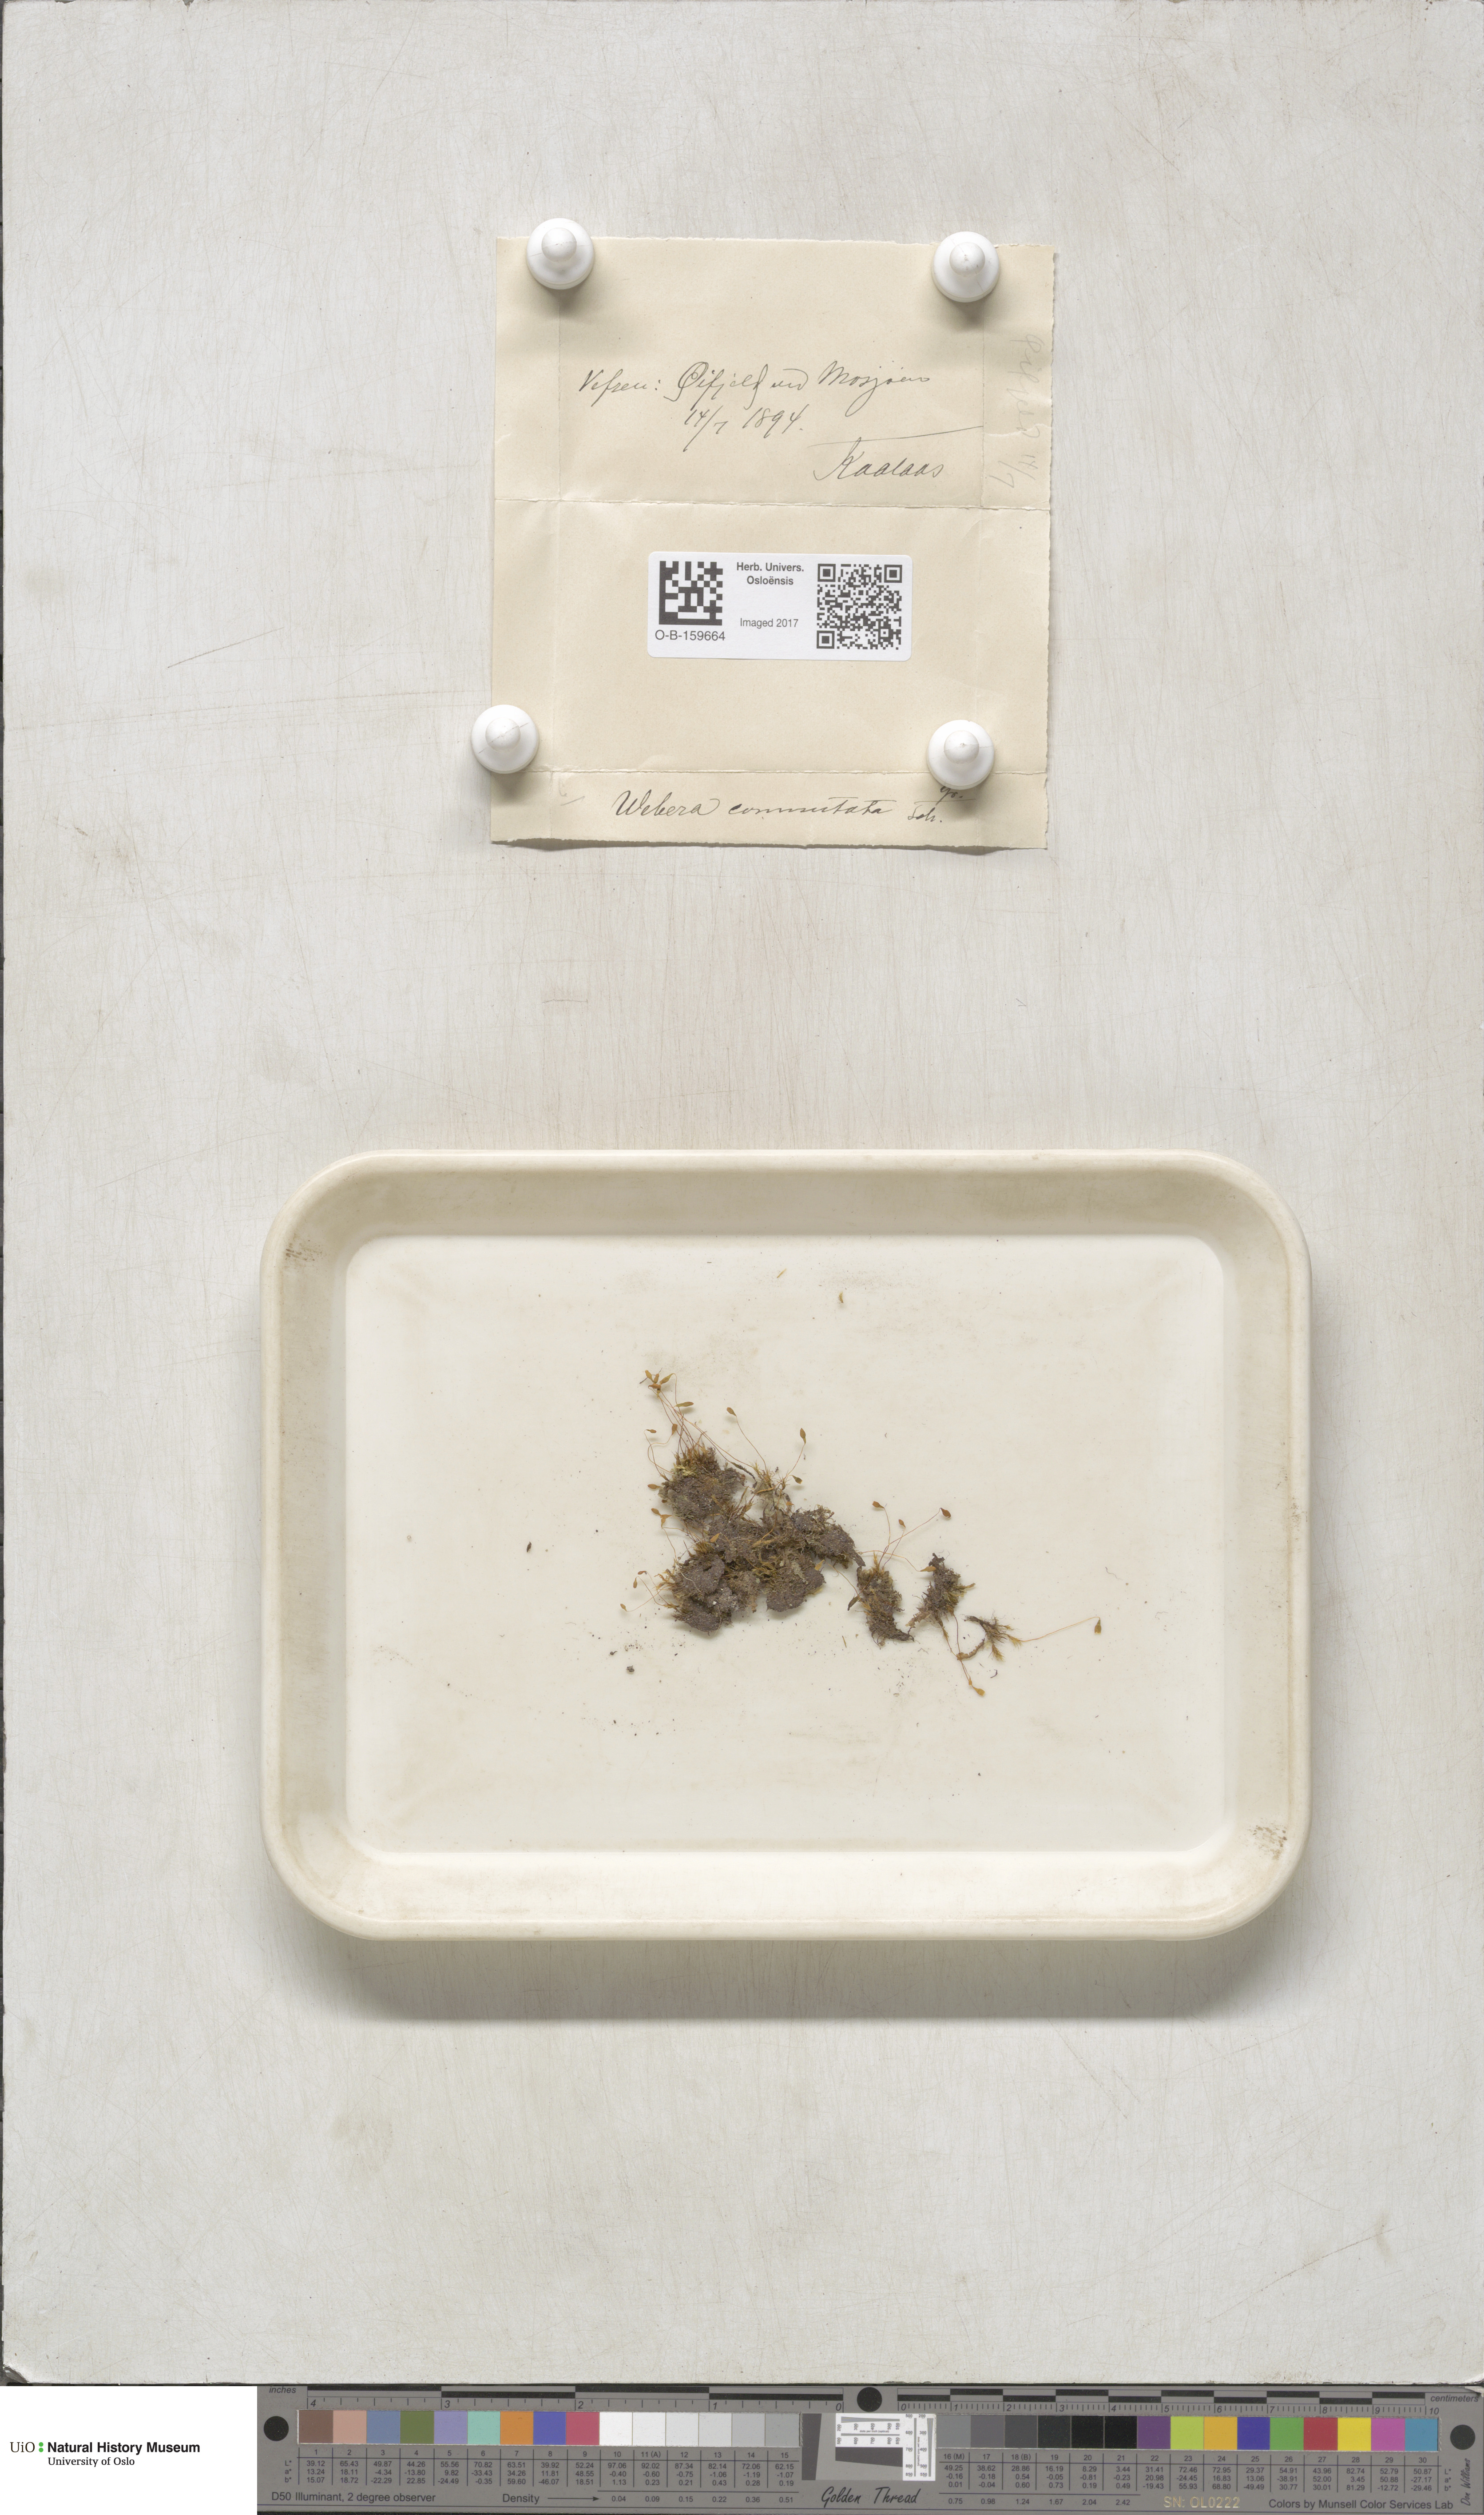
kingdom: Plantae
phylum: Bryophyta
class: Bryopsida
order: Bryales
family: Mniaceae
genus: Pohlia
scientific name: Pohlia drummondii
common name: Drummond's nodding moss
